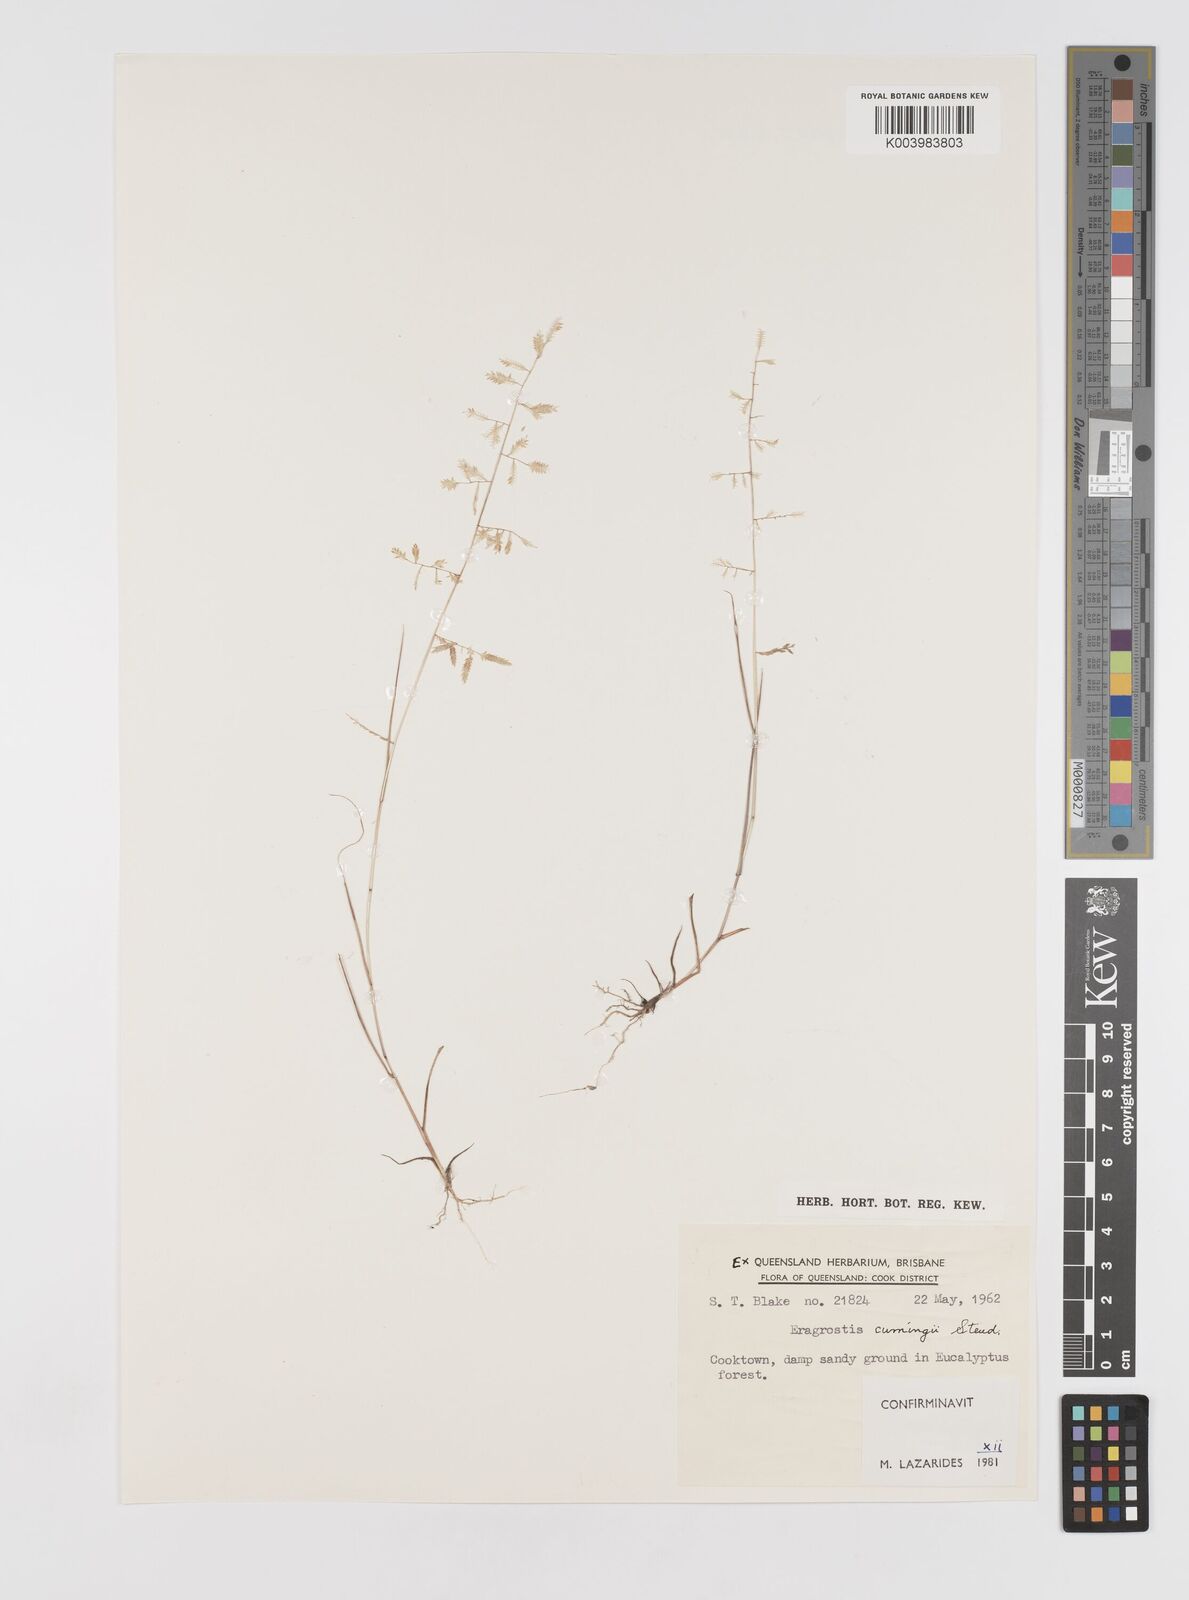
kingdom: Plantae
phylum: Tracheophyta
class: Liliopsida
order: Poales
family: Poaceae
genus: Eragrostis
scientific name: Eragrostis cumingii
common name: Cuming's lovegrass
